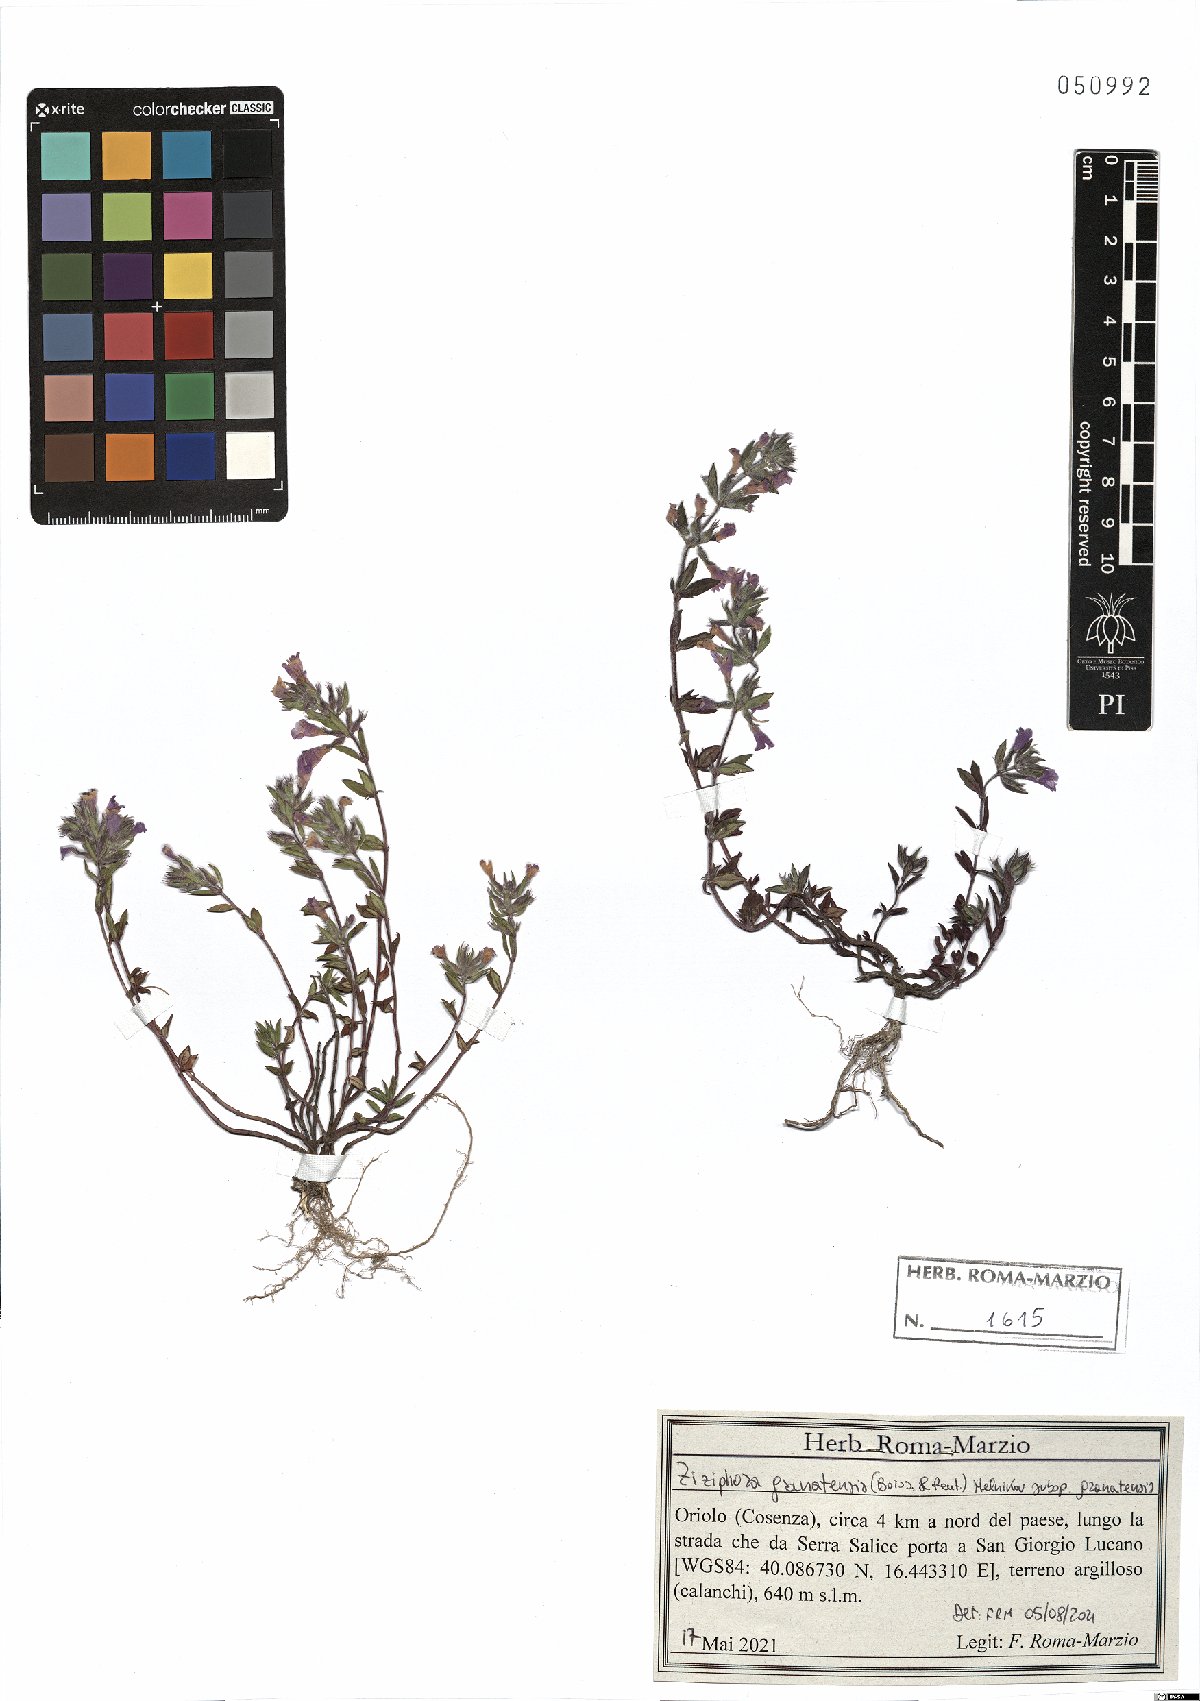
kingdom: Plantae
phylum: Tracheophyta
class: Magnoliopsida
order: Lamiales
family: Lamiaceae
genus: Clinopodium
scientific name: Clinopodium alpinum
